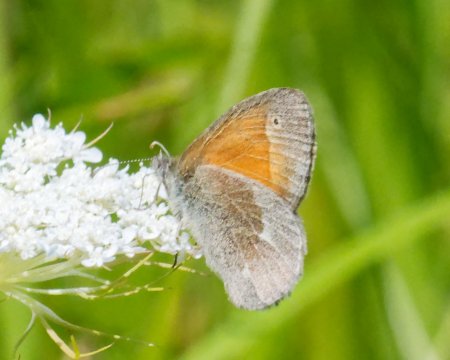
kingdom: Animalia
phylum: Arthropoda
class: Insecta
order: Lepidoptera
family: Nymphalidae
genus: Coenonympha
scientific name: Coenonympha california
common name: California Ringlet
